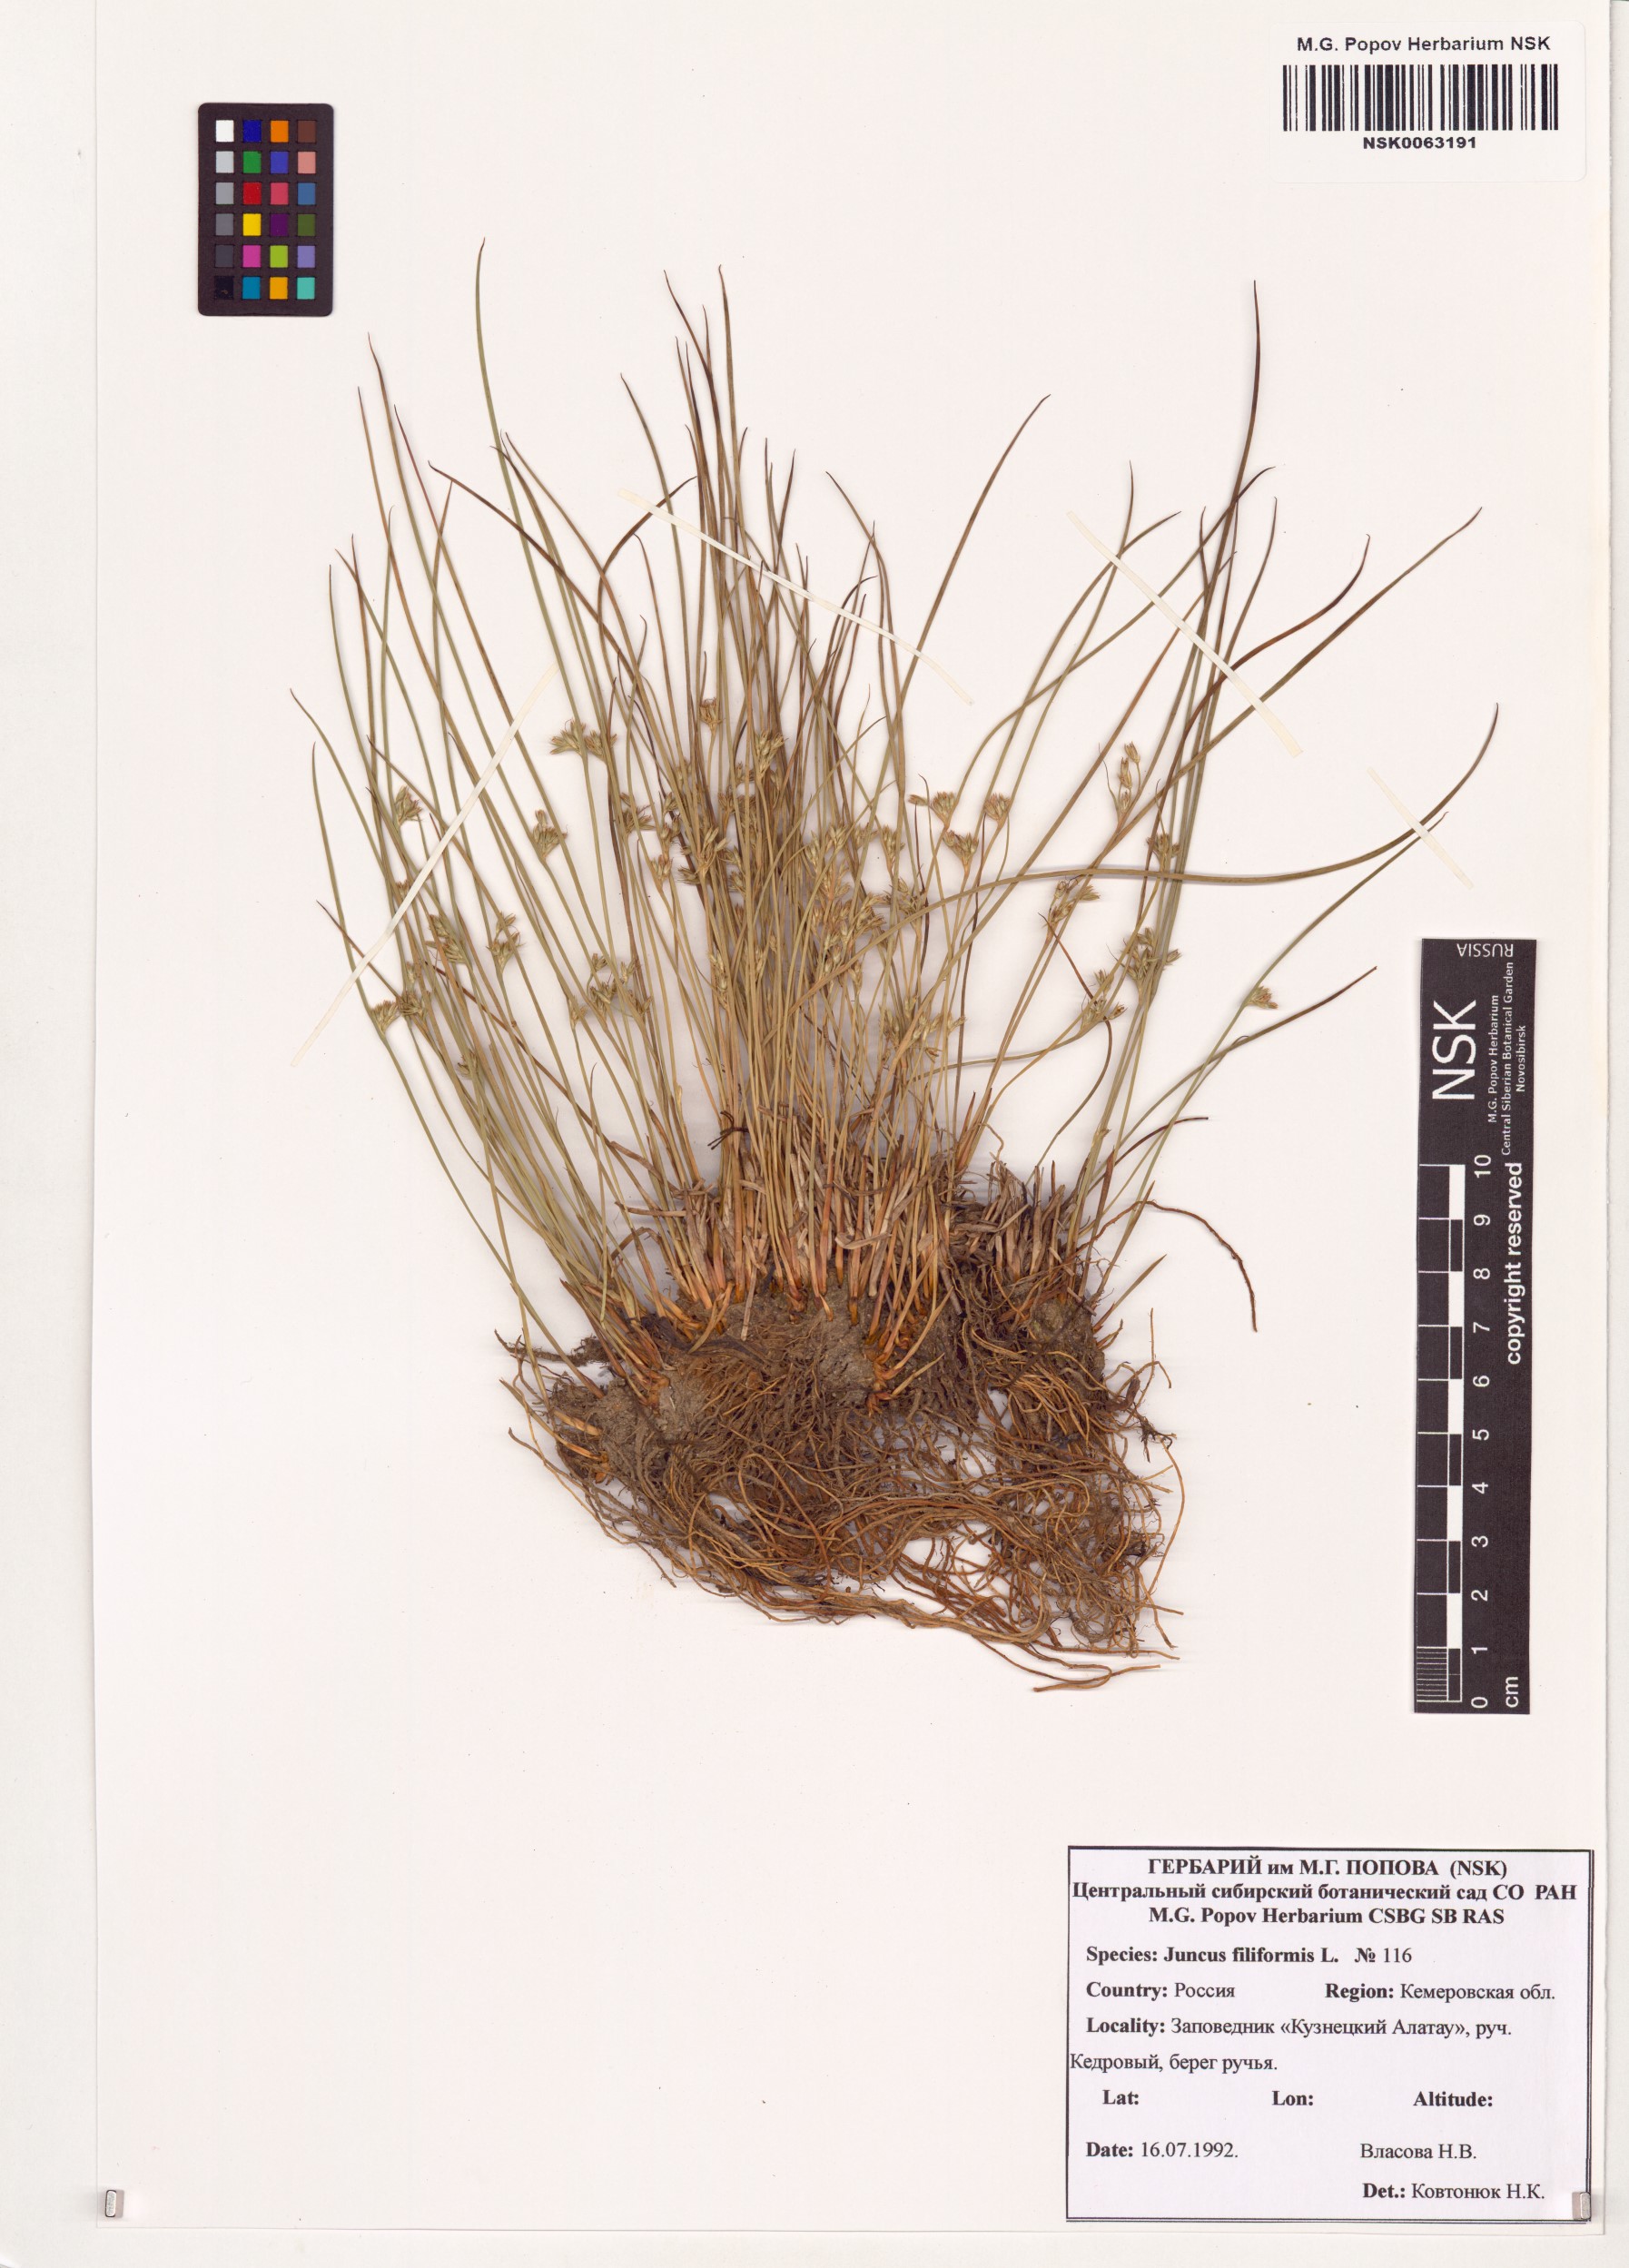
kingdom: Plantae
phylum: Tracheophyta
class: Liliopsida
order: Poales
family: Juncaceae
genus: Juncus
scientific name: Juncus filiformis
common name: Thread rush
